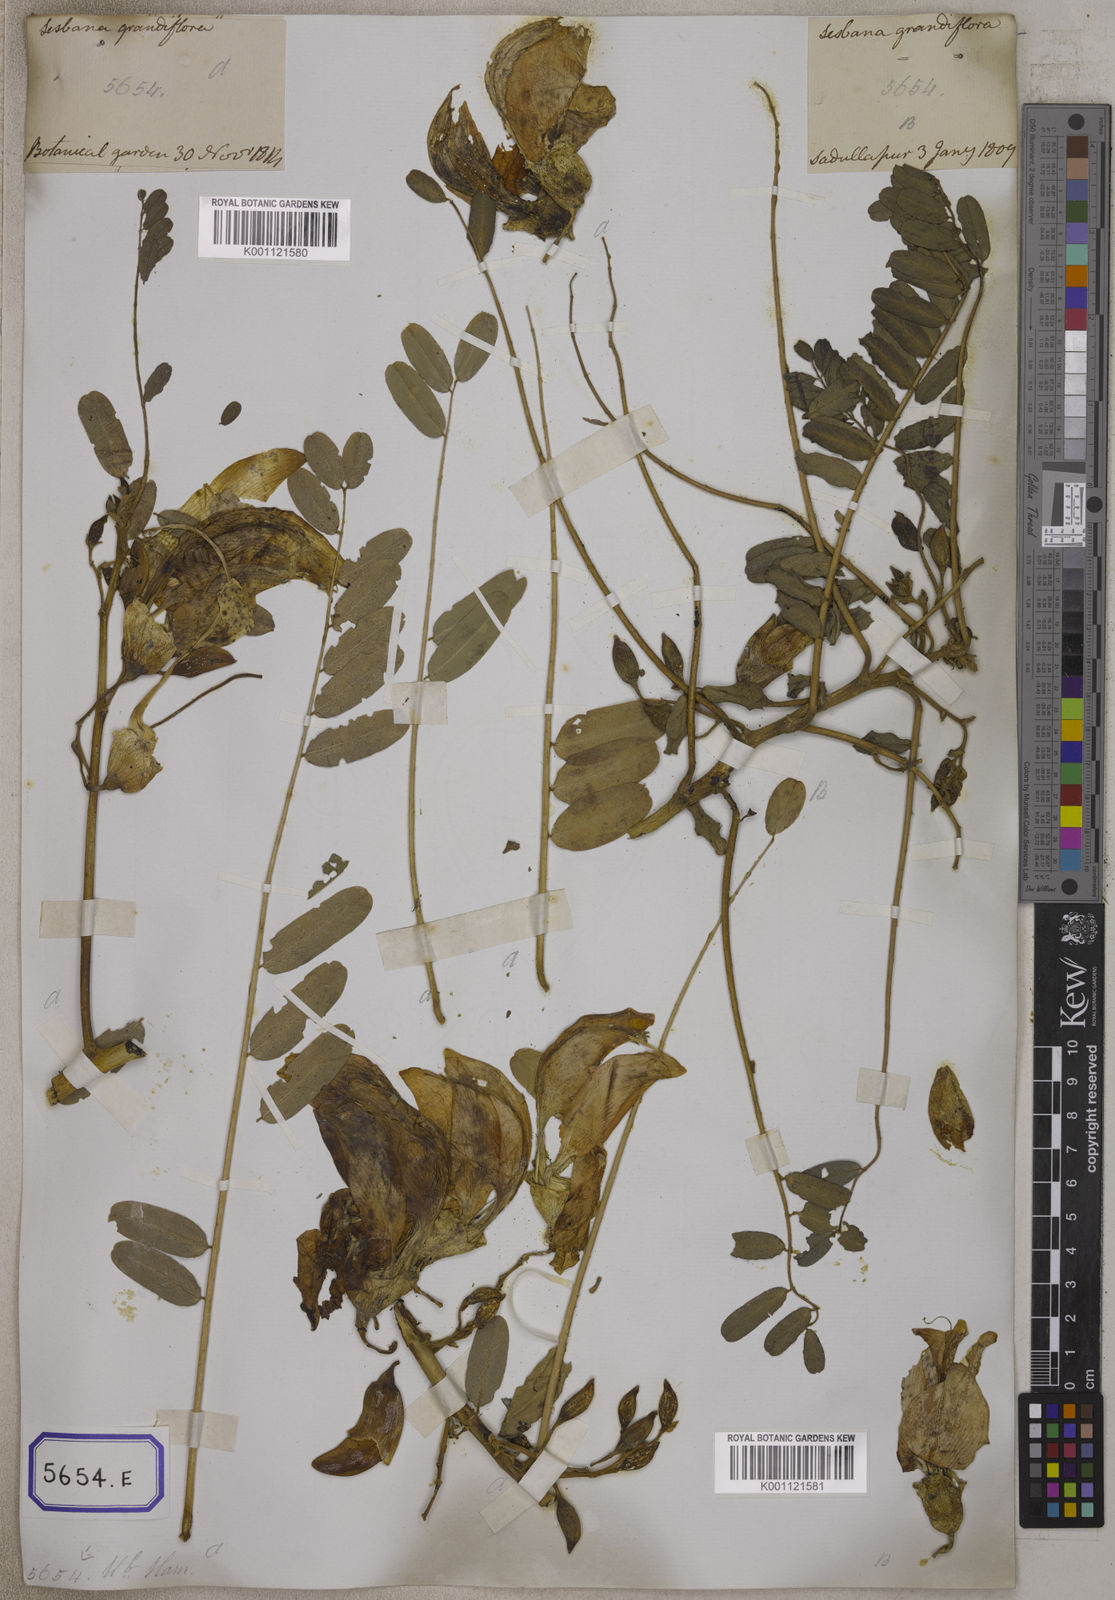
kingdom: Plantae
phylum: Tracheophyta
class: Magnoliopsida
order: Fabales
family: Fabaceae
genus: Sesbania
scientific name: Sesbania grandiflora
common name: Vegetable-hummingbird
